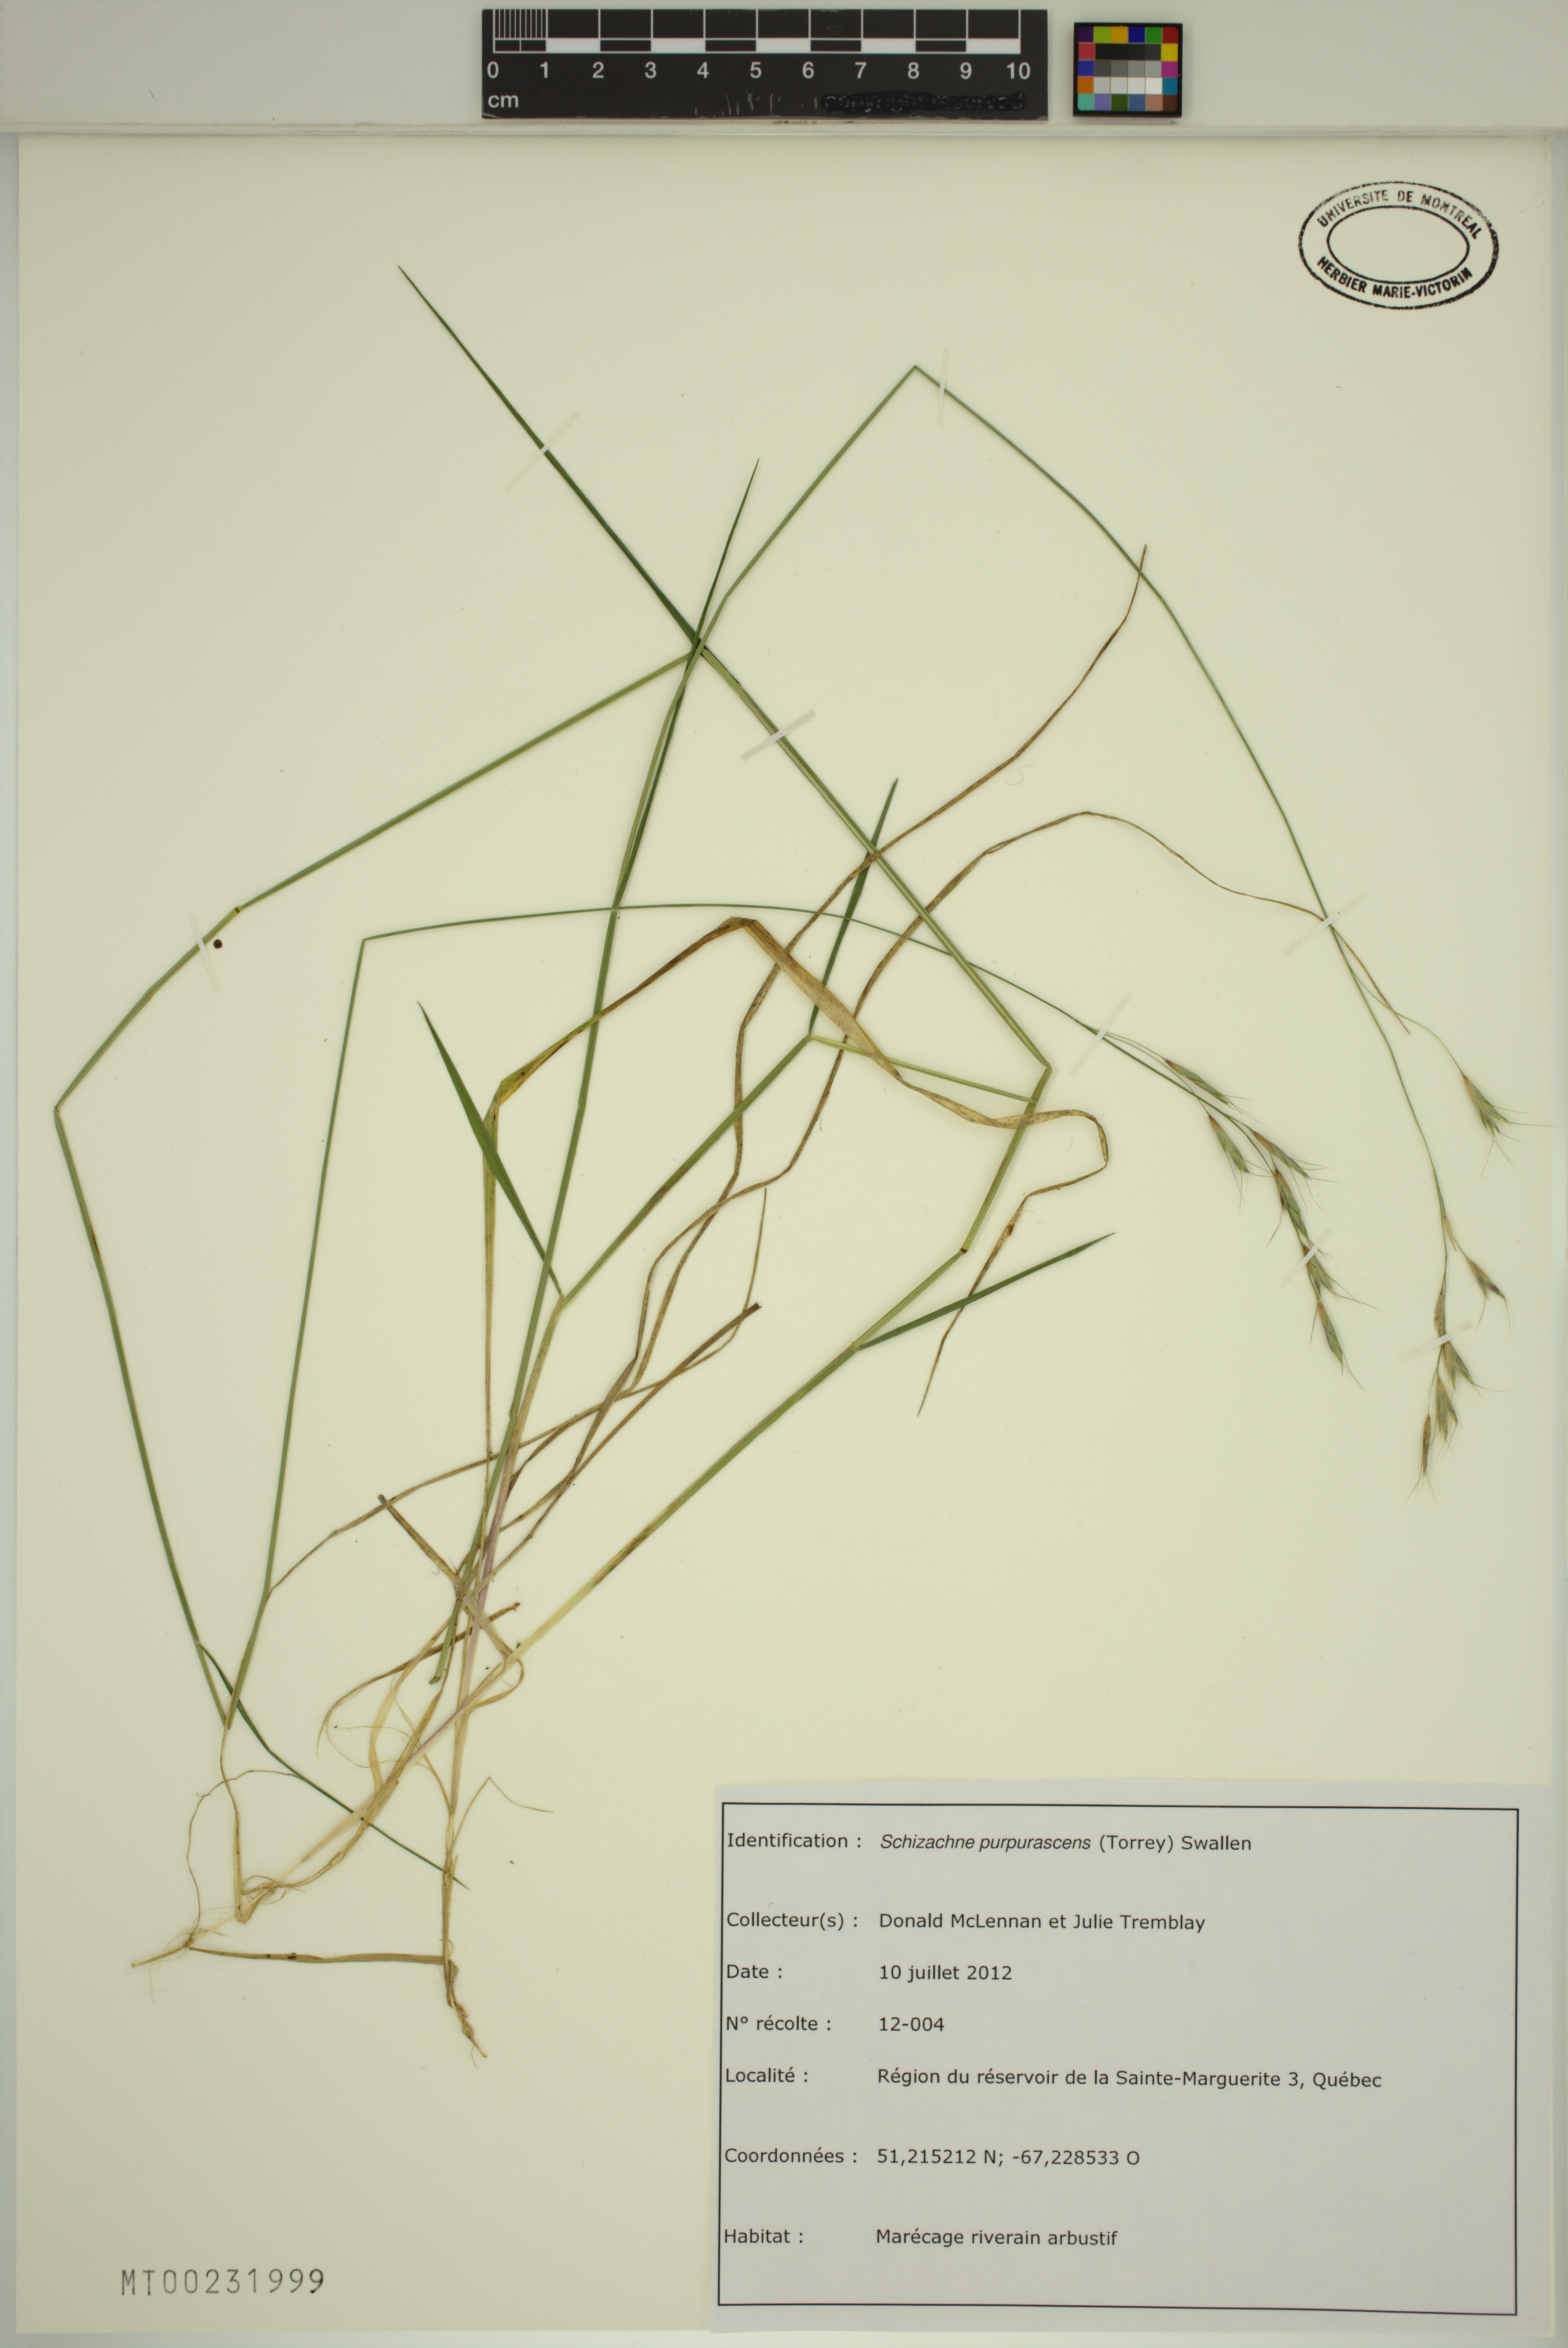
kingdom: Plantae
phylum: Tracheophyta
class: Liliopsida
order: Poales
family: Poaceae
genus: Schizachne
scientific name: Schizachne purpurascens
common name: False melic
